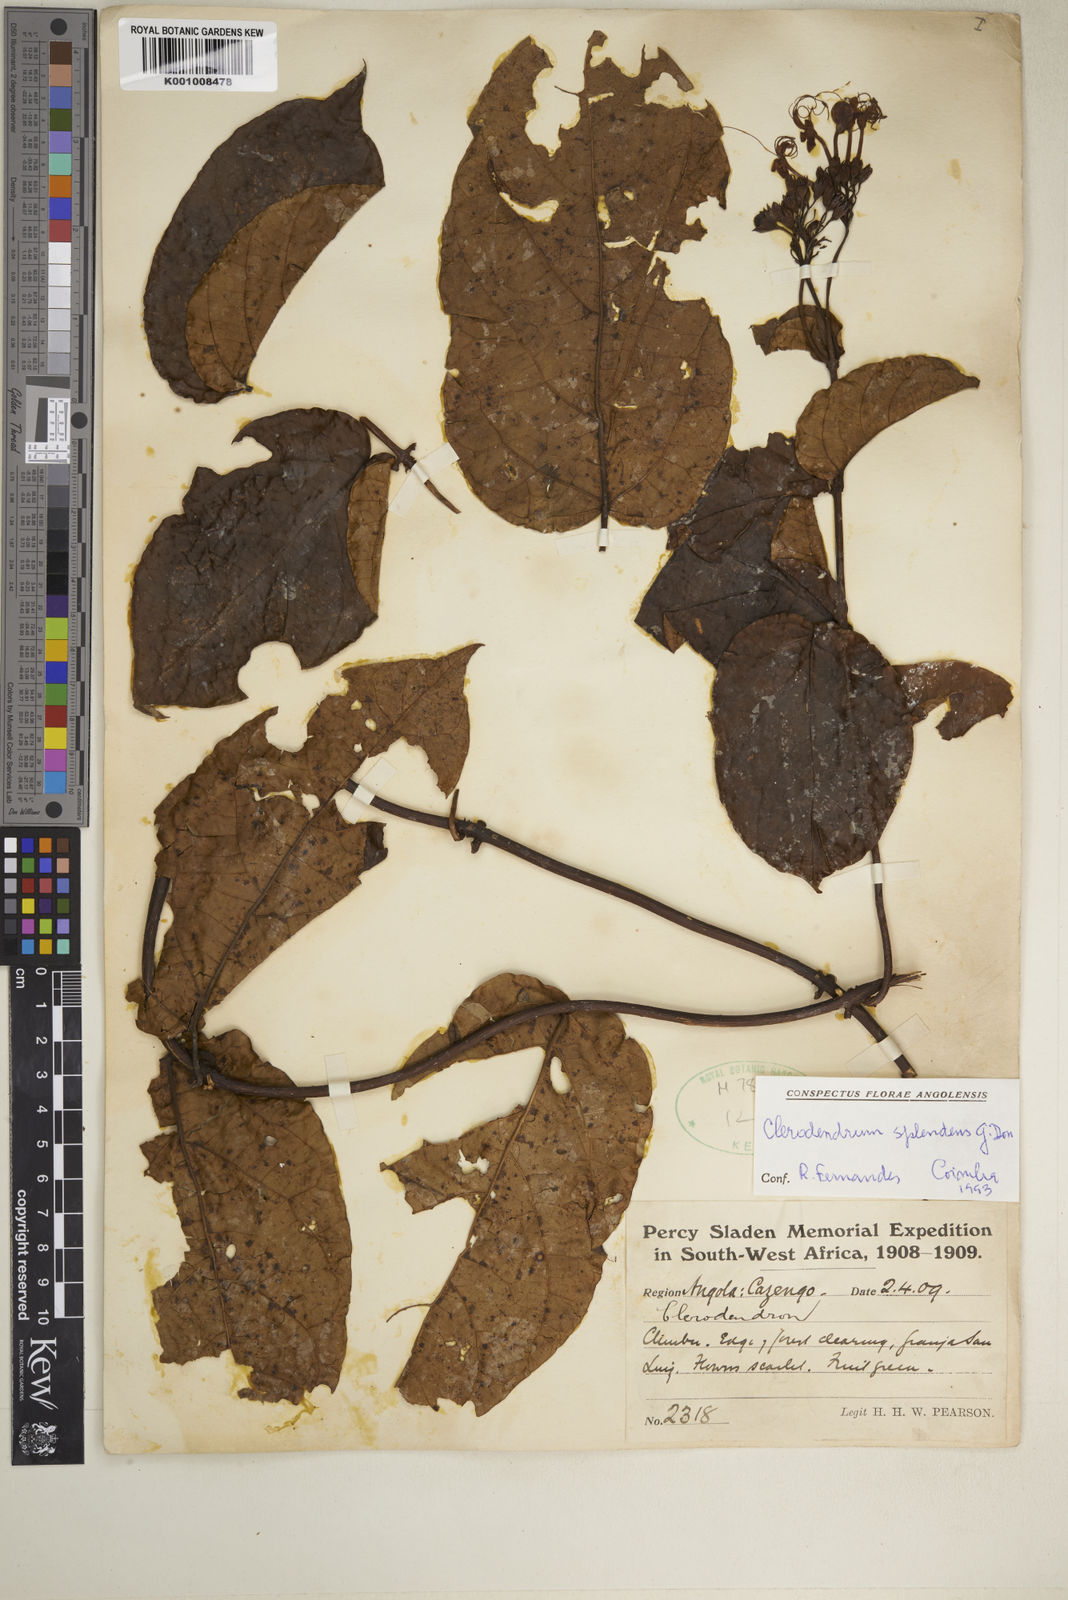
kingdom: Plantae
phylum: Tracheophyta
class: Magnoliopsida
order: Lamiales
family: Lamiaceae
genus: Clerodendrum
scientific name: Clerodendrum splendens
